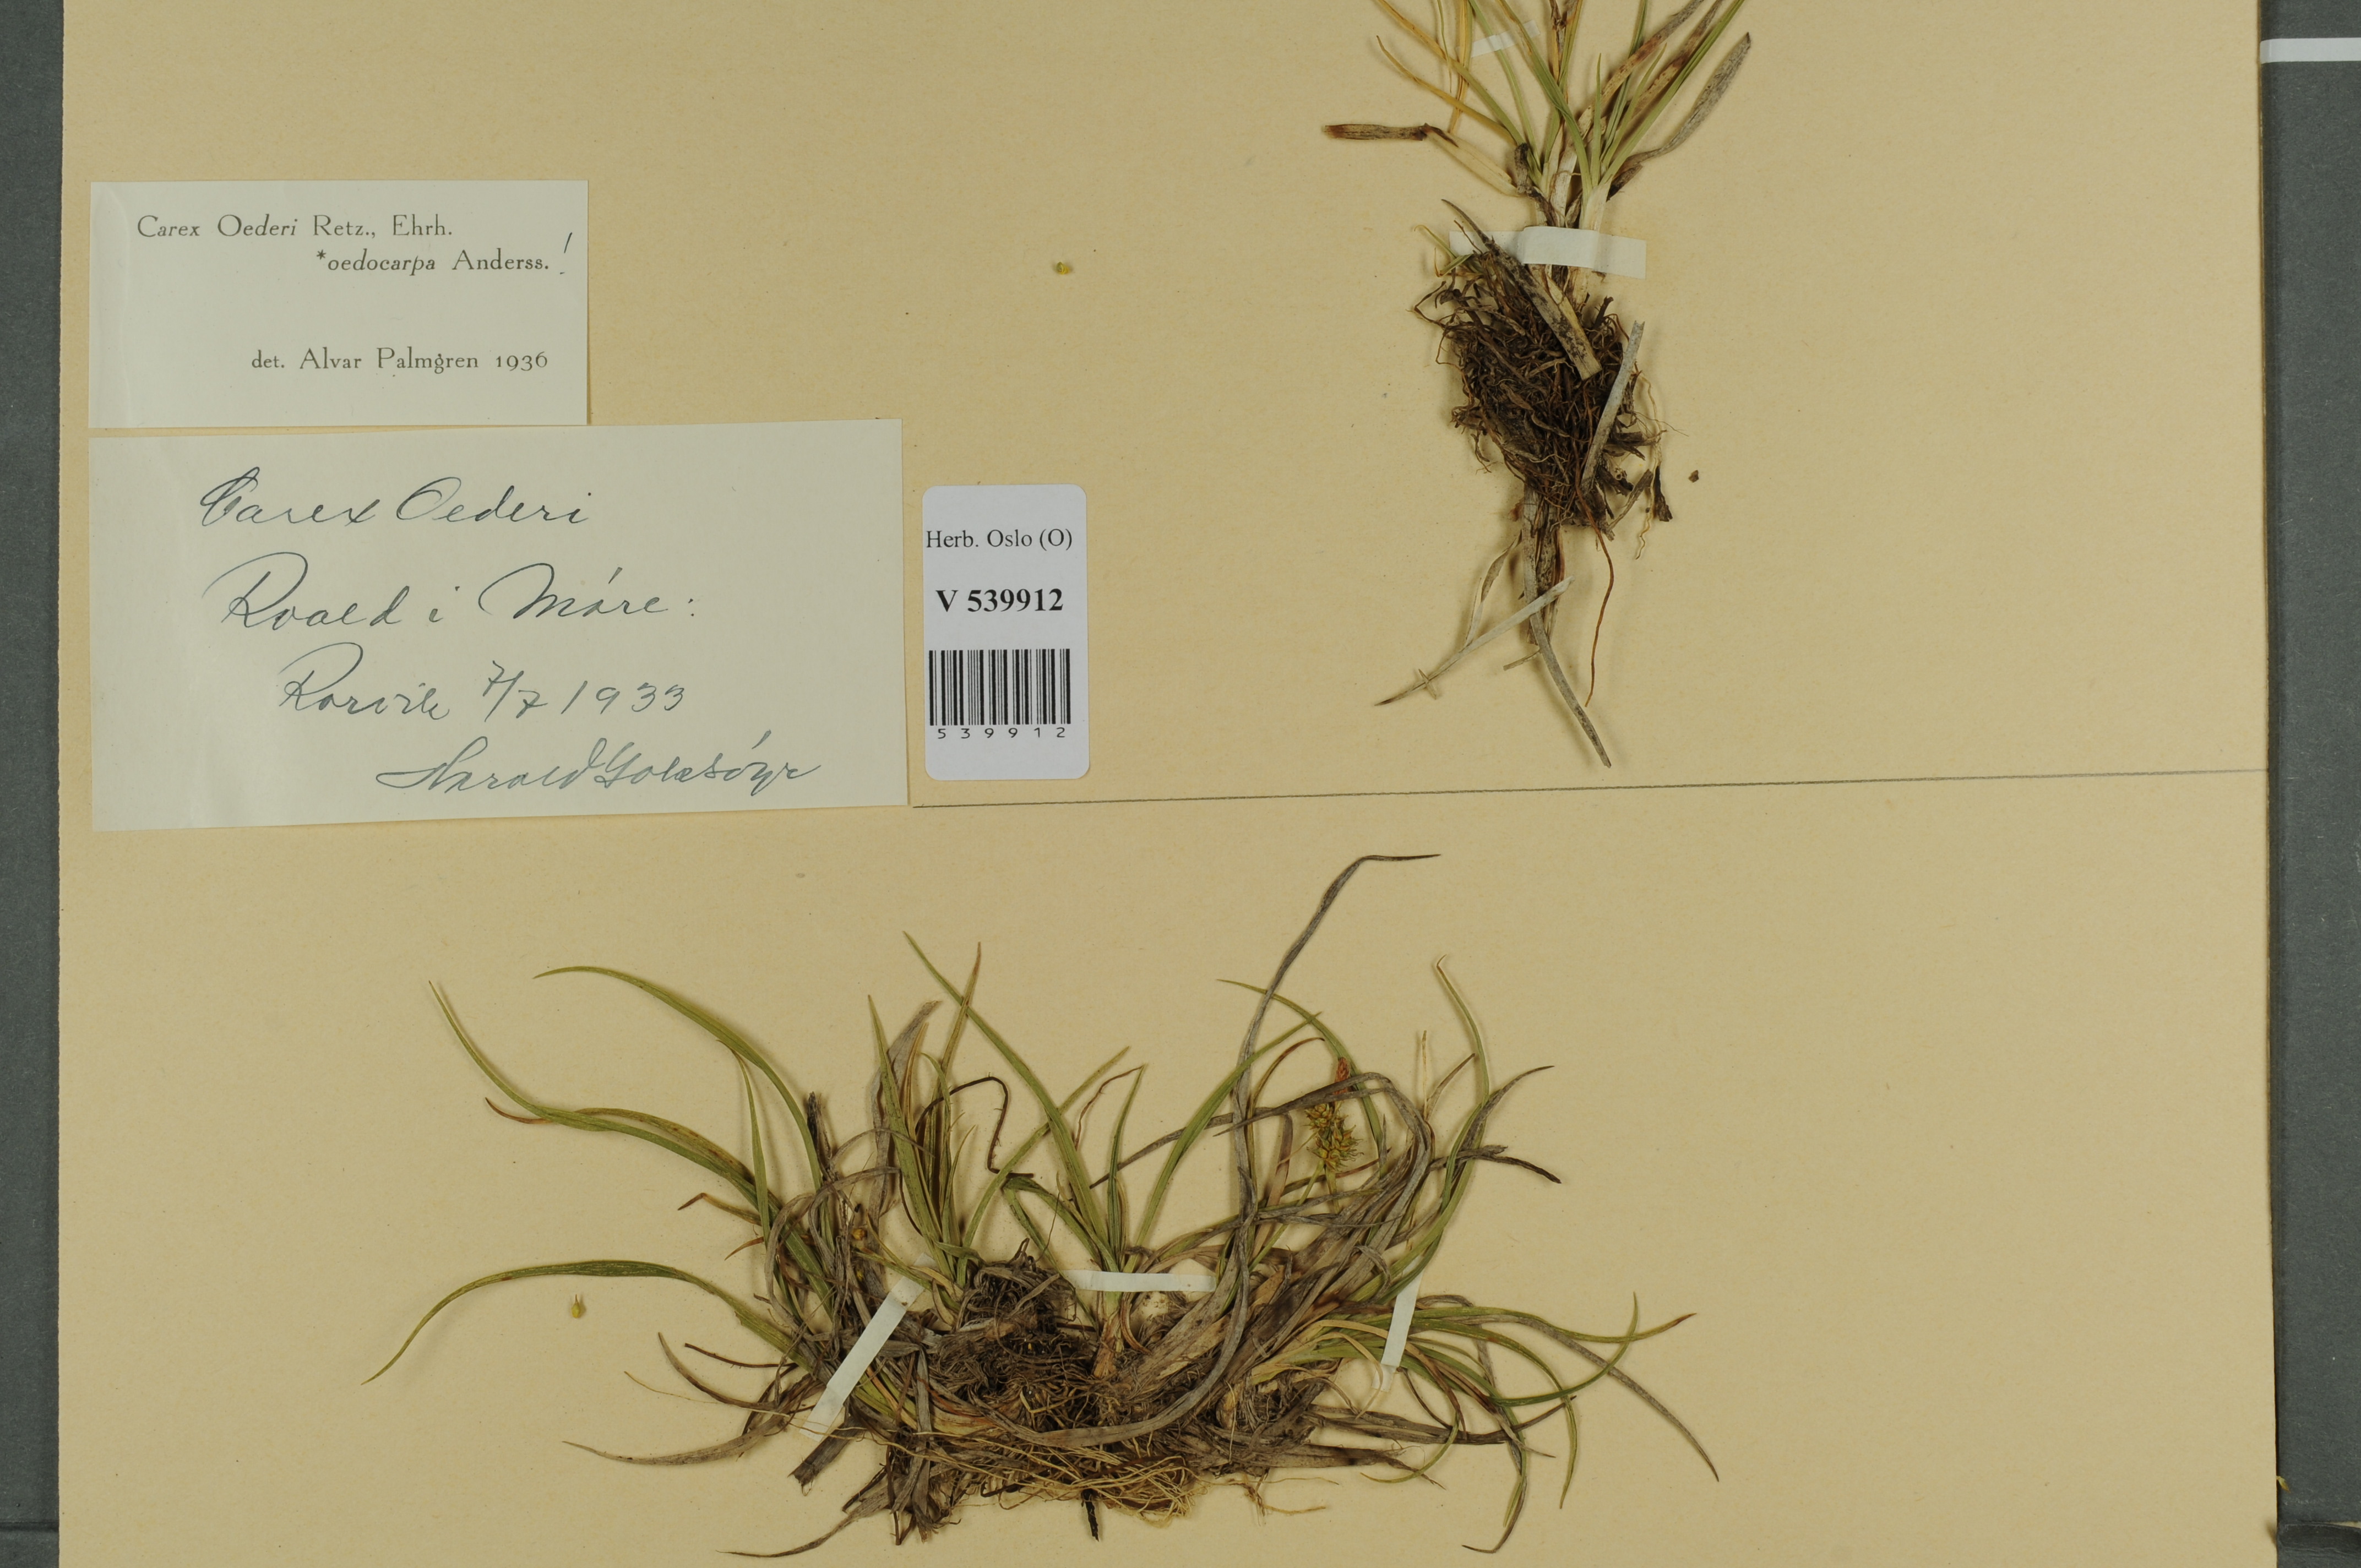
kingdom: Plantae
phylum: Tracheophyta
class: Liliopsida
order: Poales
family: Cyperaceae
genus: Carex
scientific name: Carex demissa
